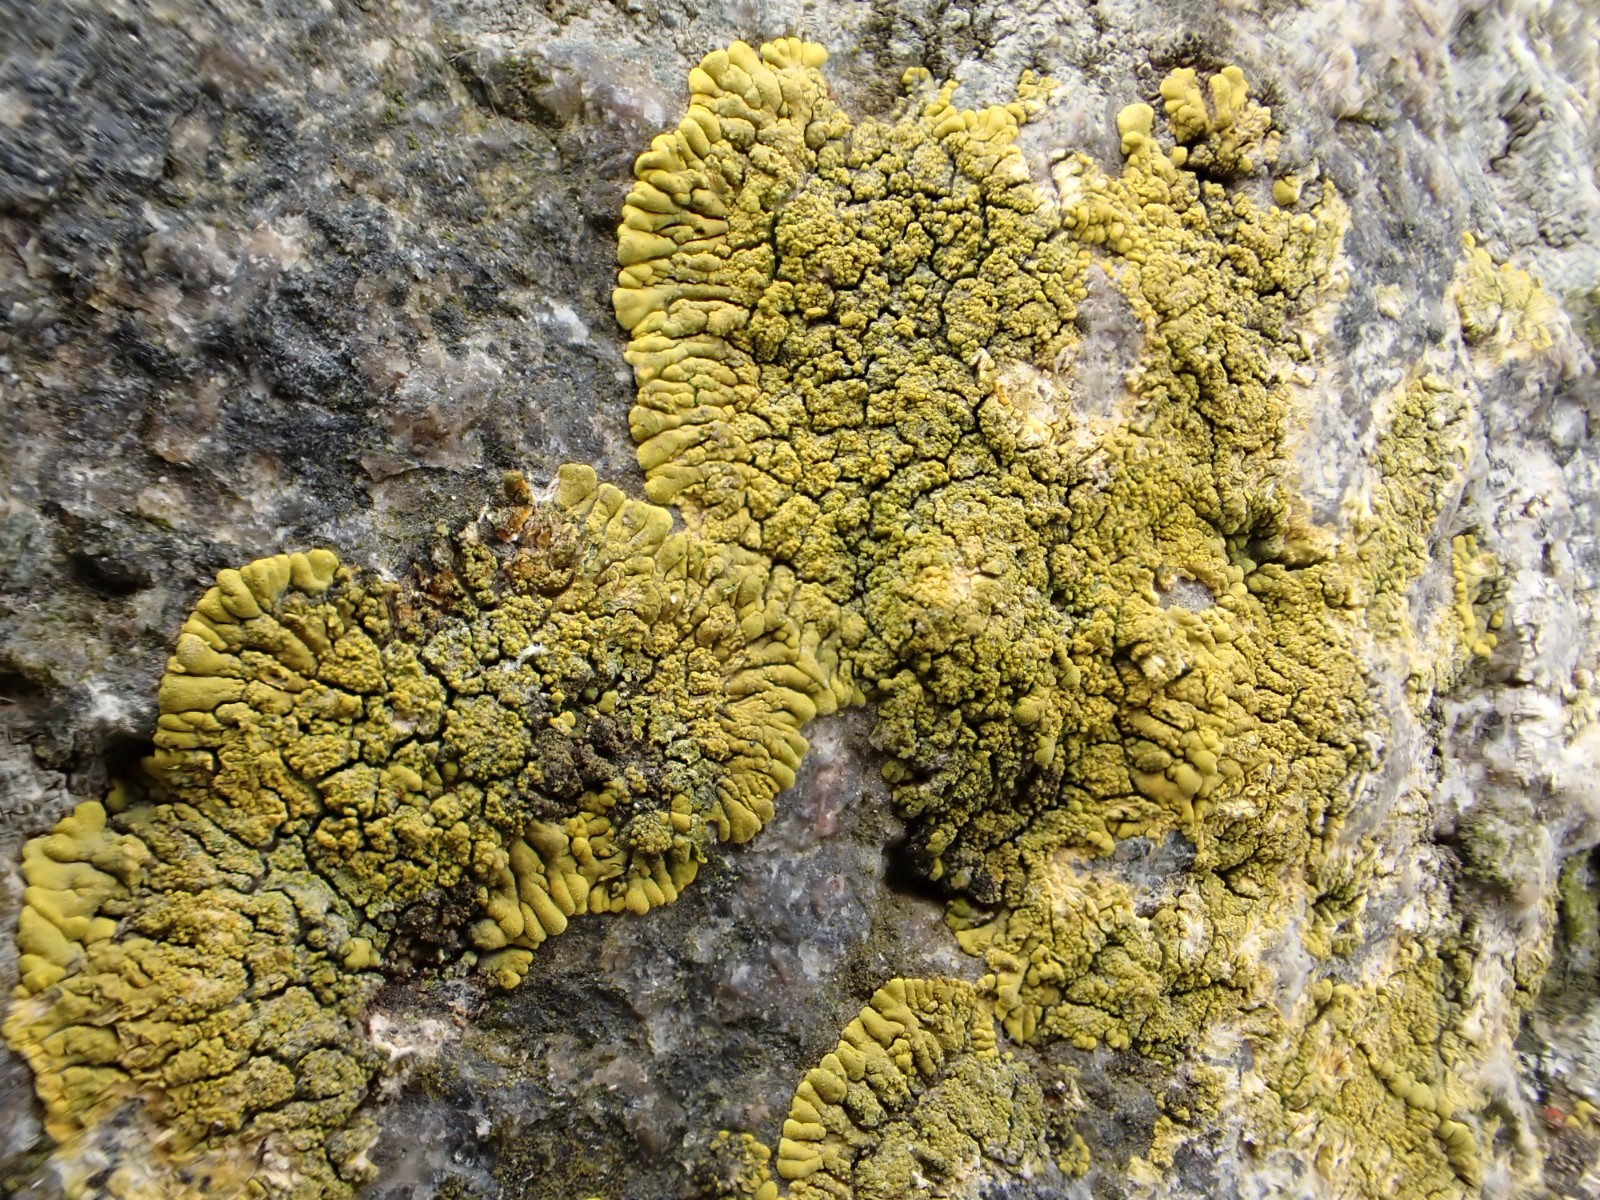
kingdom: Fungi
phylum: Ascomycota
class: Lecanoromycetes
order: Teloschistales
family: Teloschistaceae
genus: Verrucoplaca
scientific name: Verrucoplaca verruculifera
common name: koldkyst-orangelav
